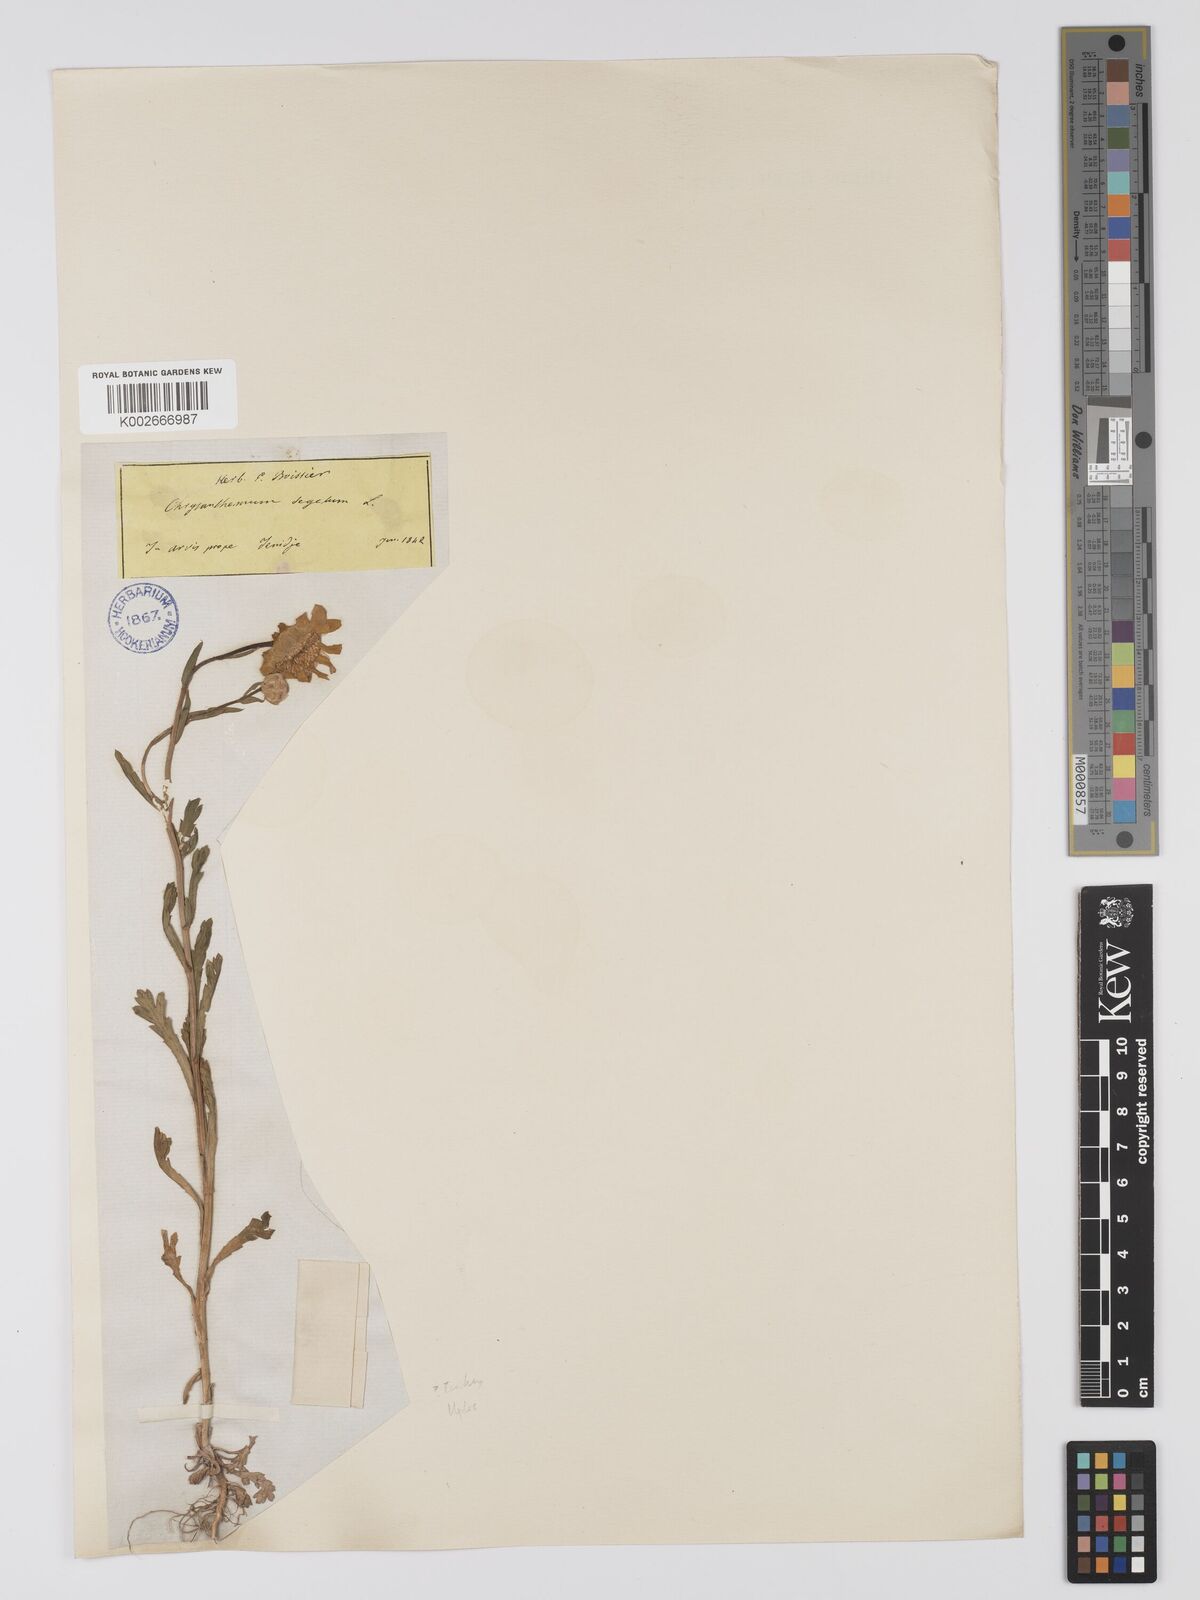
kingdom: Plantae
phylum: Tracheophyta
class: Magnoliopsida
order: Asterales
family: Asteraceae
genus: Glebionis
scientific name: Glebionis segetum
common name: Corndaisy
